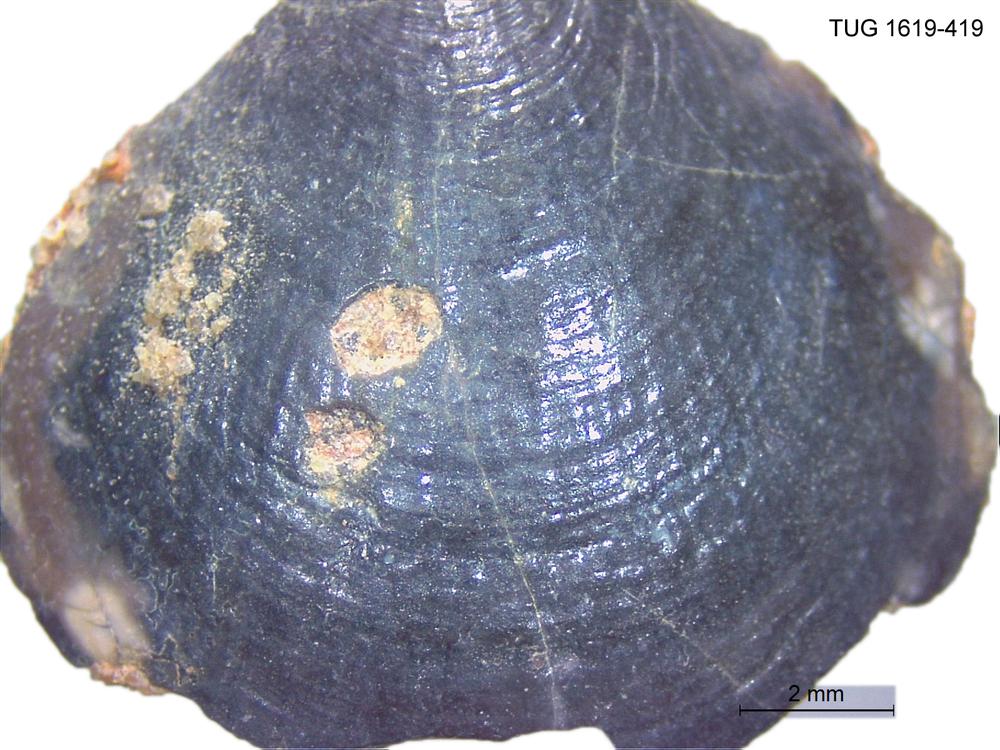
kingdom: Animalia
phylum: Porifera
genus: Ungula
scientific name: Ungula
